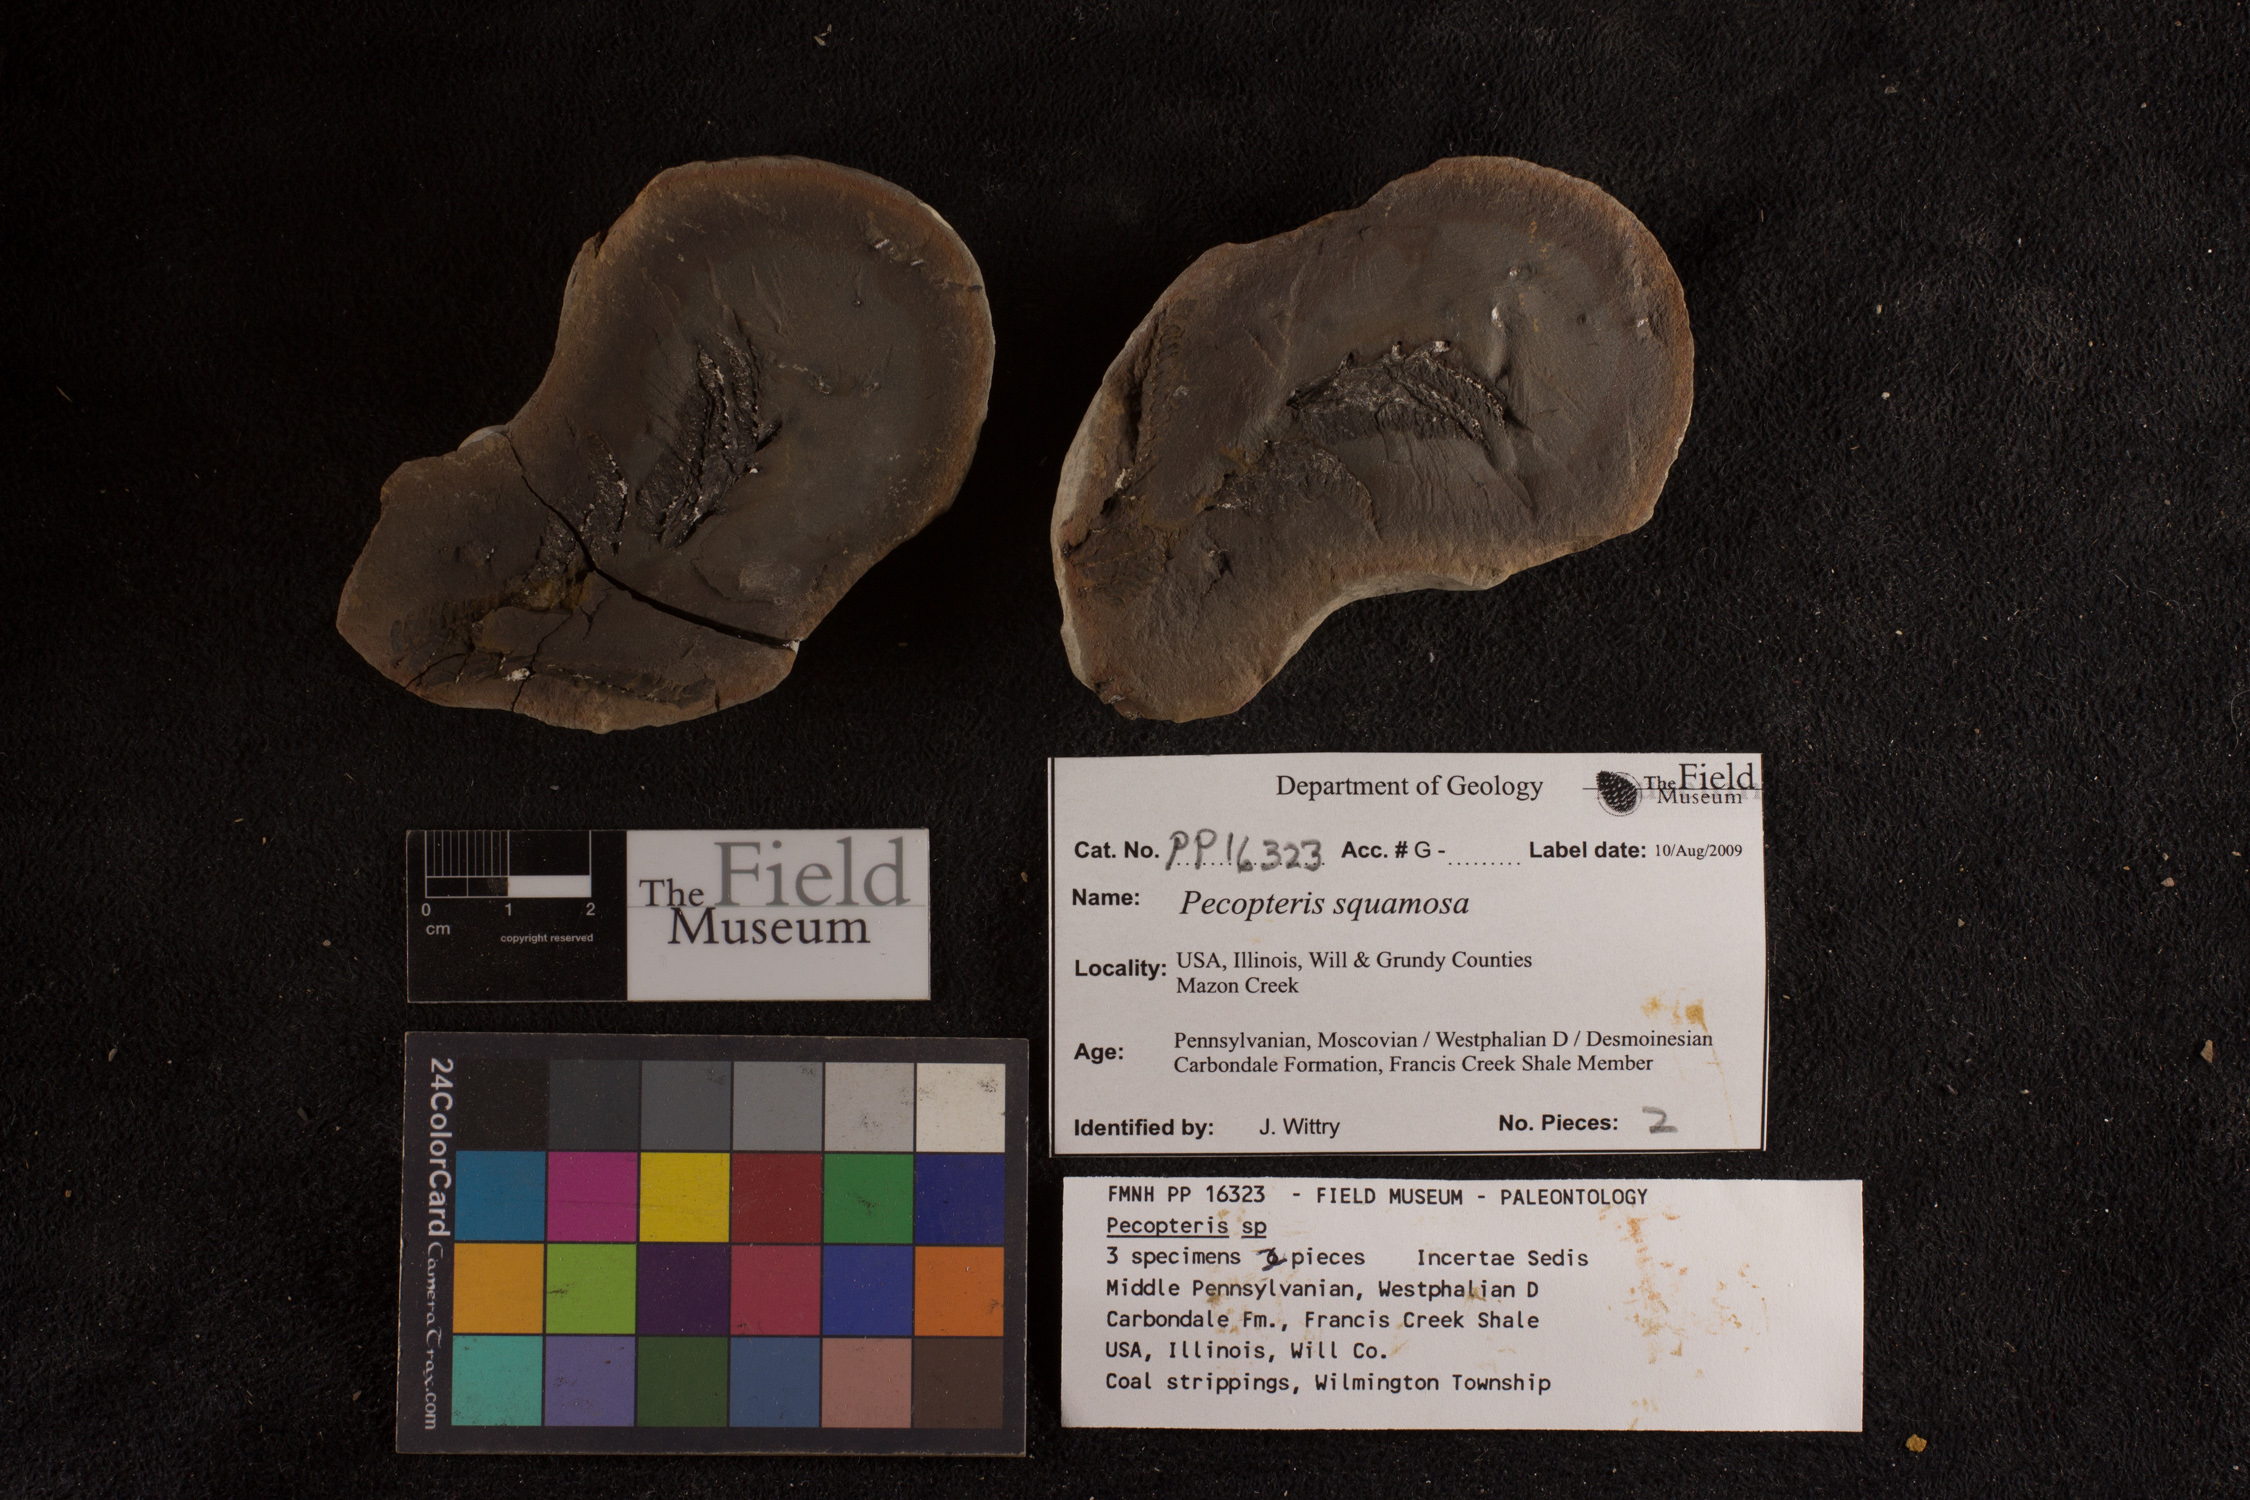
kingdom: Plantae
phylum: Tracheophyta
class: Polypodiopsida
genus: Diplazites
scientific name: Diplazites
